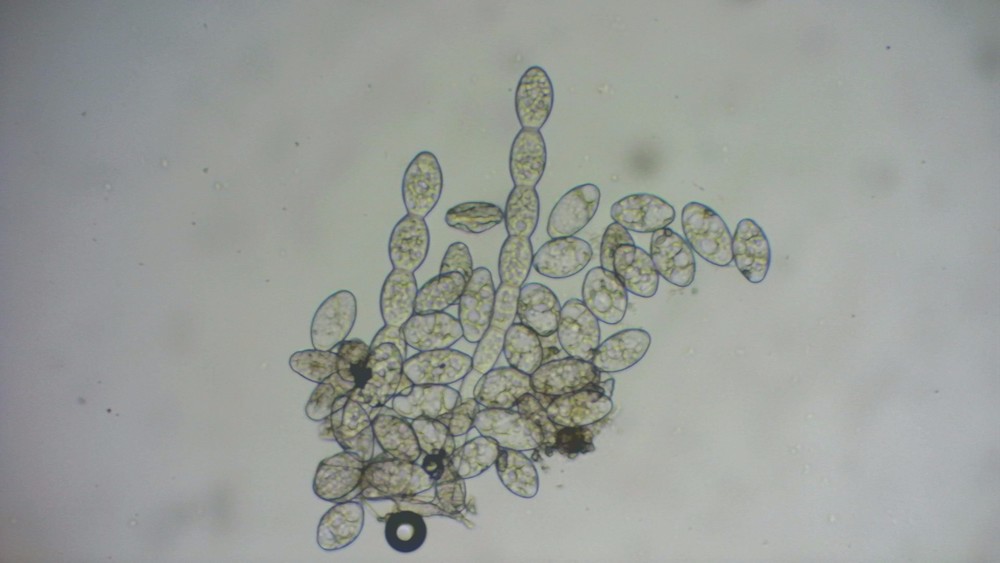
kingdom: Fungi
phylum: Ascomycota
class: Leotiomycetes
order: Helotiales
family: Erysiphaceae
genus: Podosphaera
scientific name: Podosphaera aphanis
